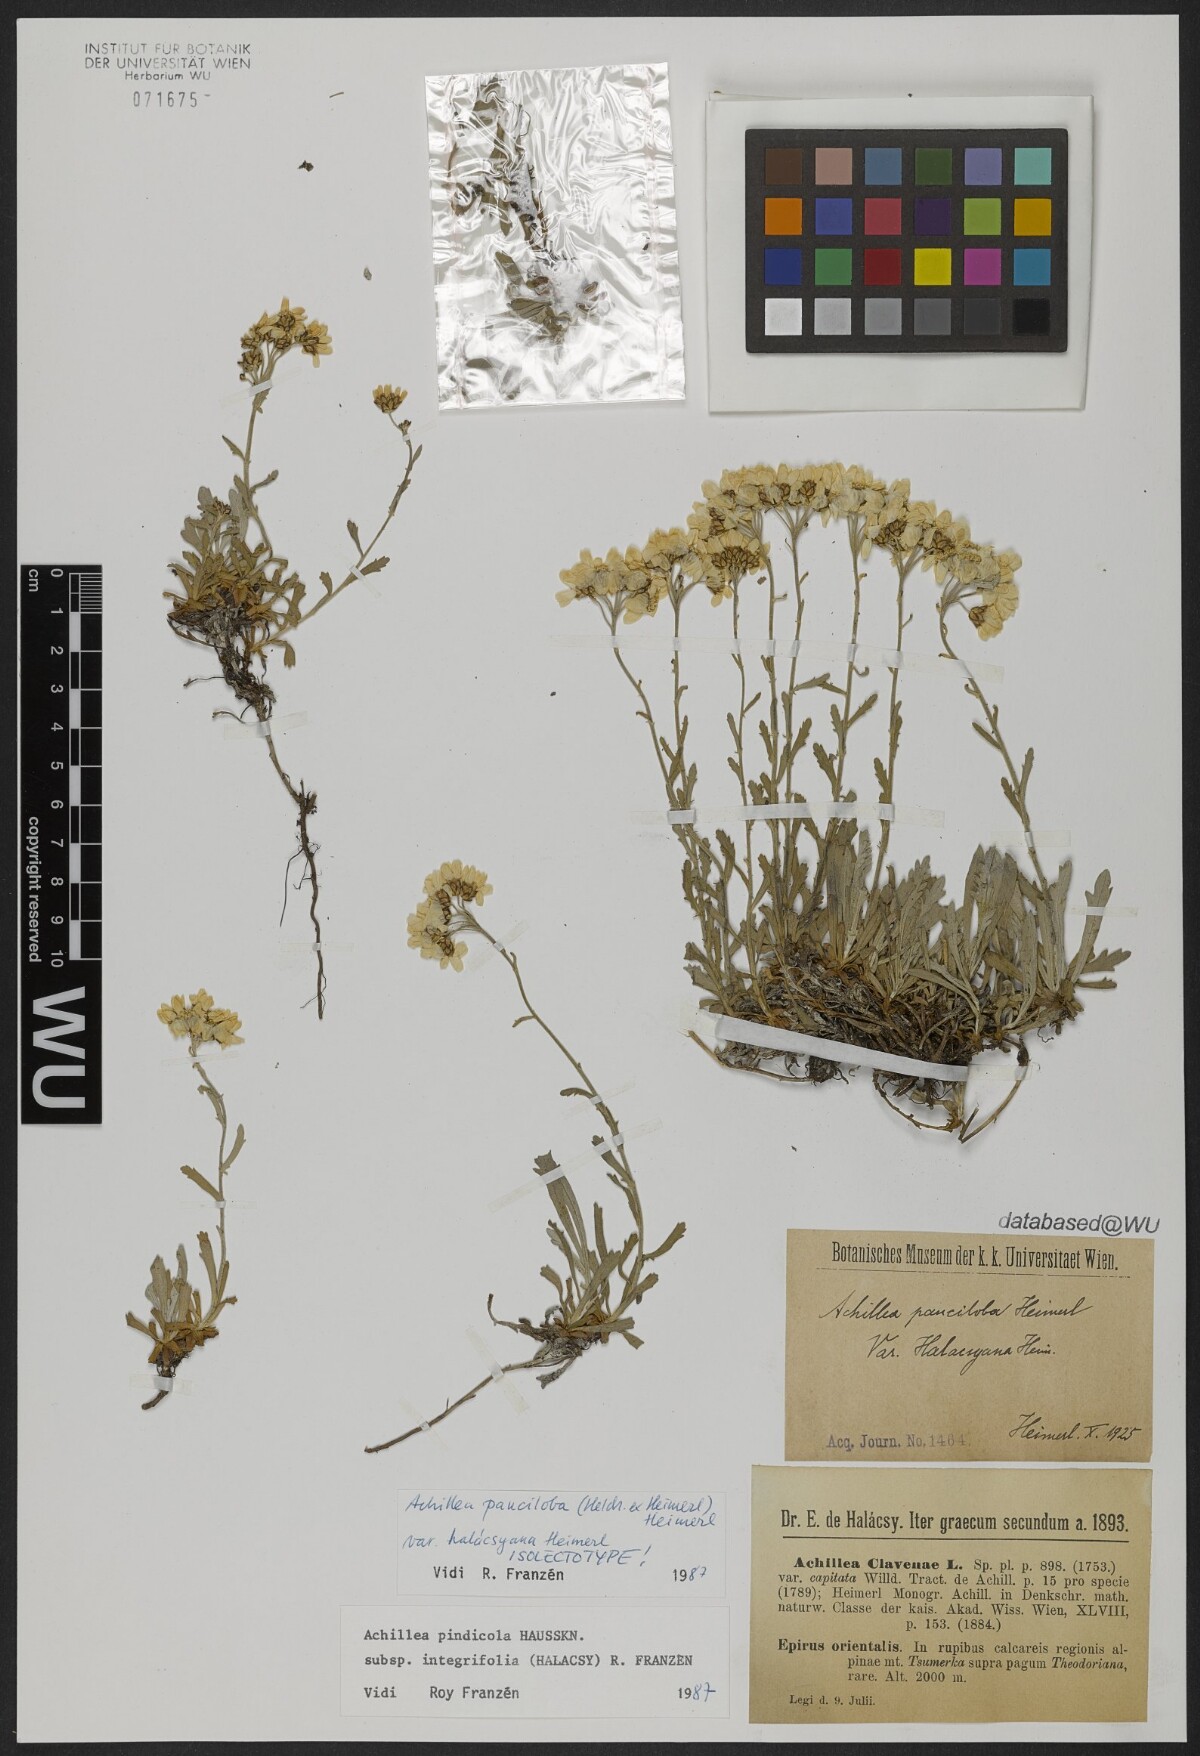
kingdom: Plantae
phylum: Tracheophyta
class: Magnoliopsida
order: Asterales
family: Asteraceae
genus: Achillea
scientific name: Achillea pindicola
